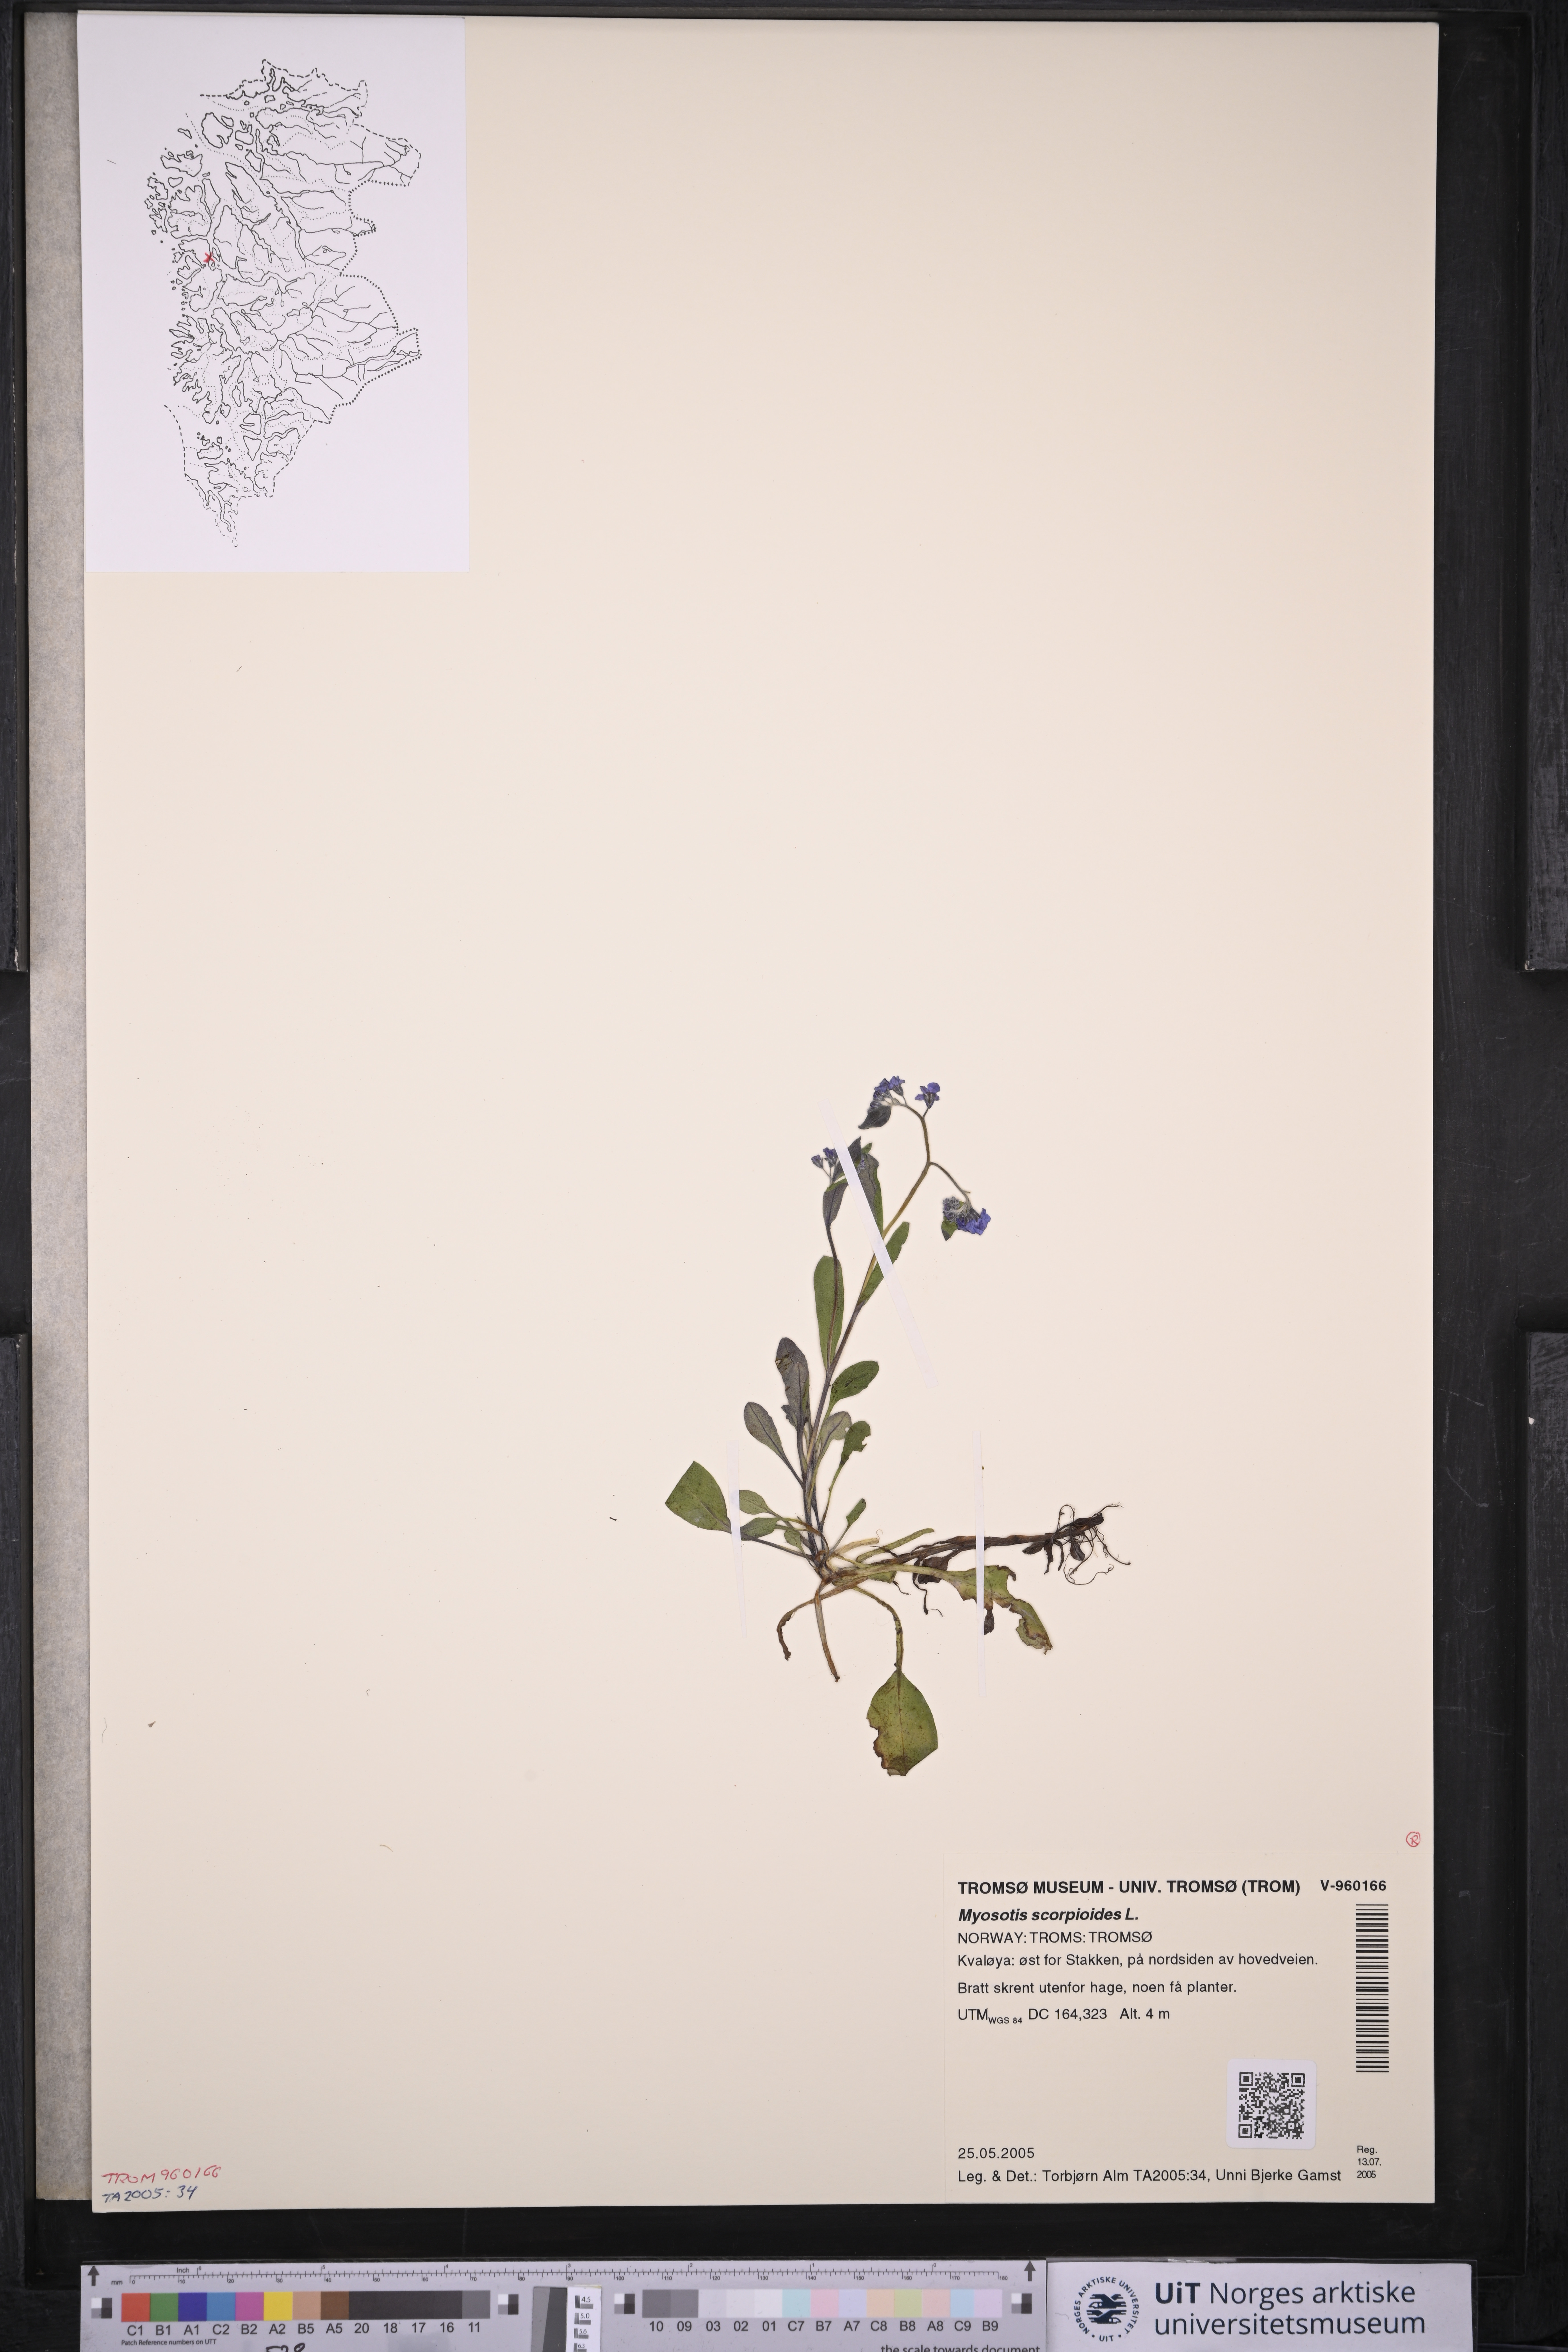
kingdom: Plantae
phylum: Tracheophyta
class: Magnoliopsida
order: Boraginales
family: Boraginaceae
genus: Myosotis
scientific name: Myosotis scorpioides
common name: Water forget-me-not
